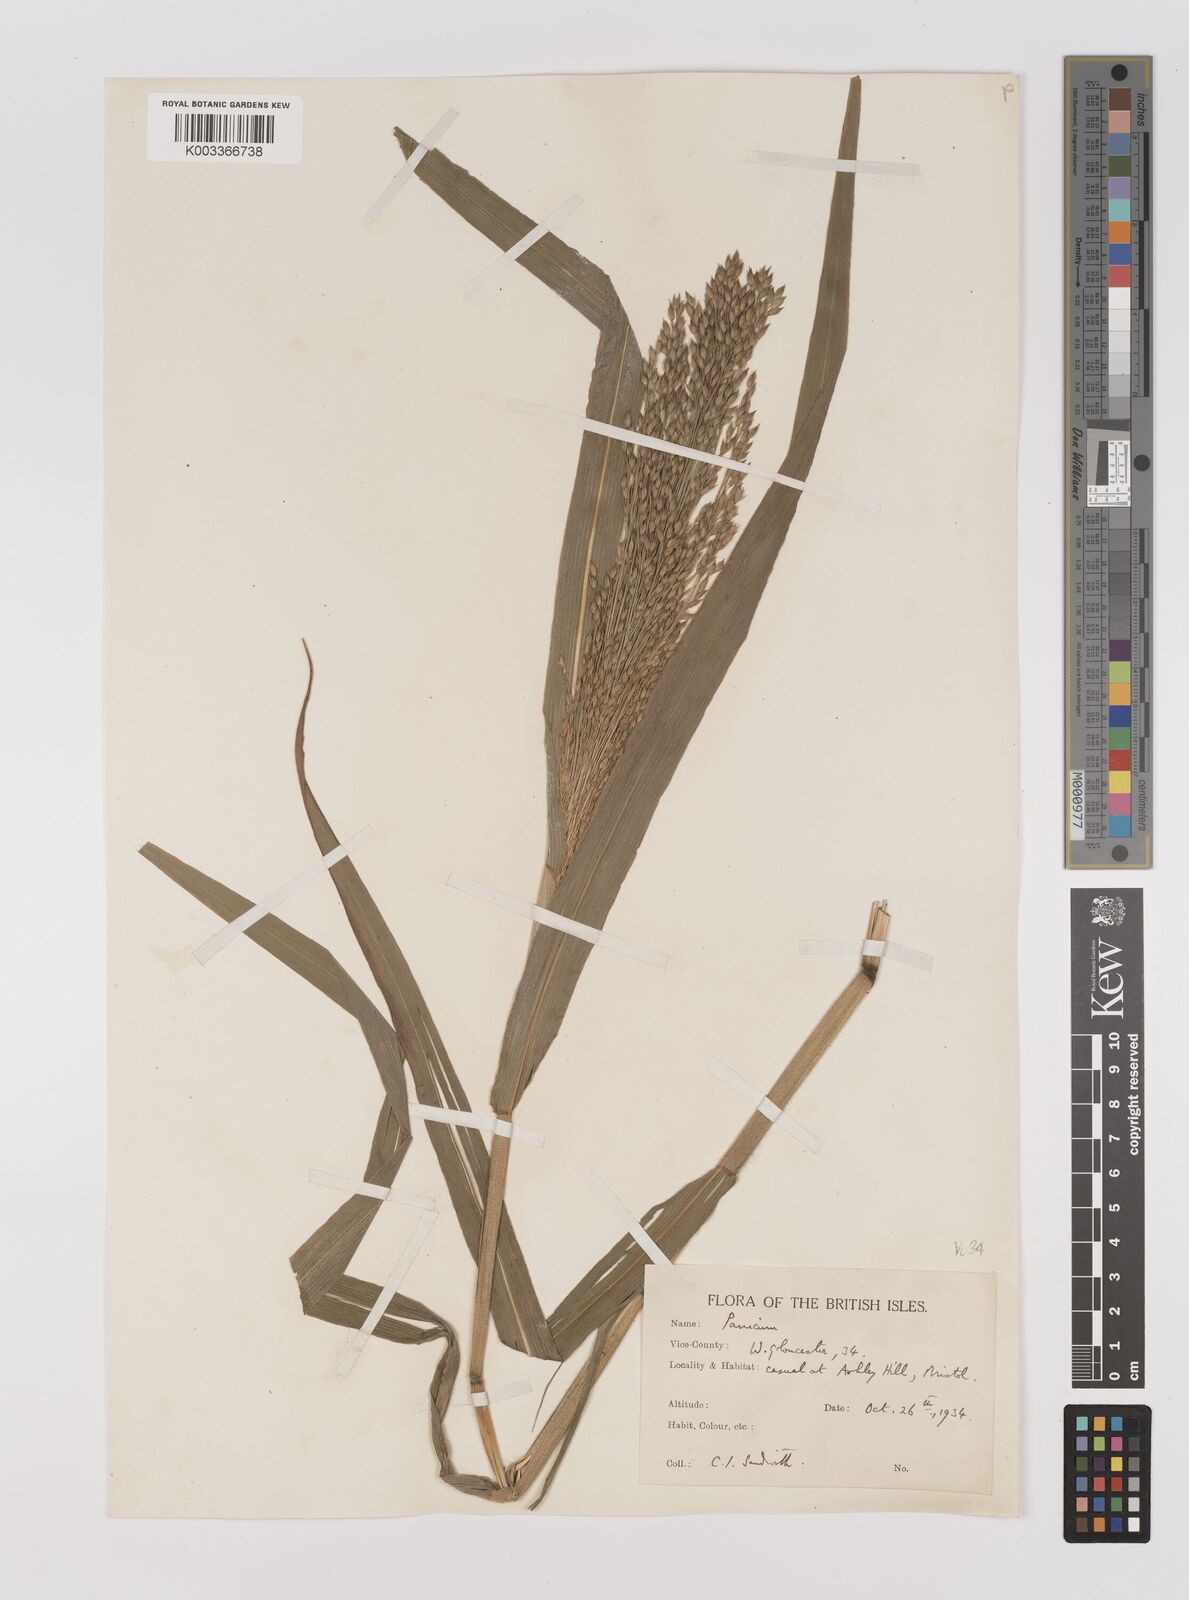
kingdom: Plantae
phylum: Tracheophyta
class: Liliopsida
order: Poales
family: Poaceae
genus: Panicum
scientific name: Panicum miliaceum
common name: Common millet
